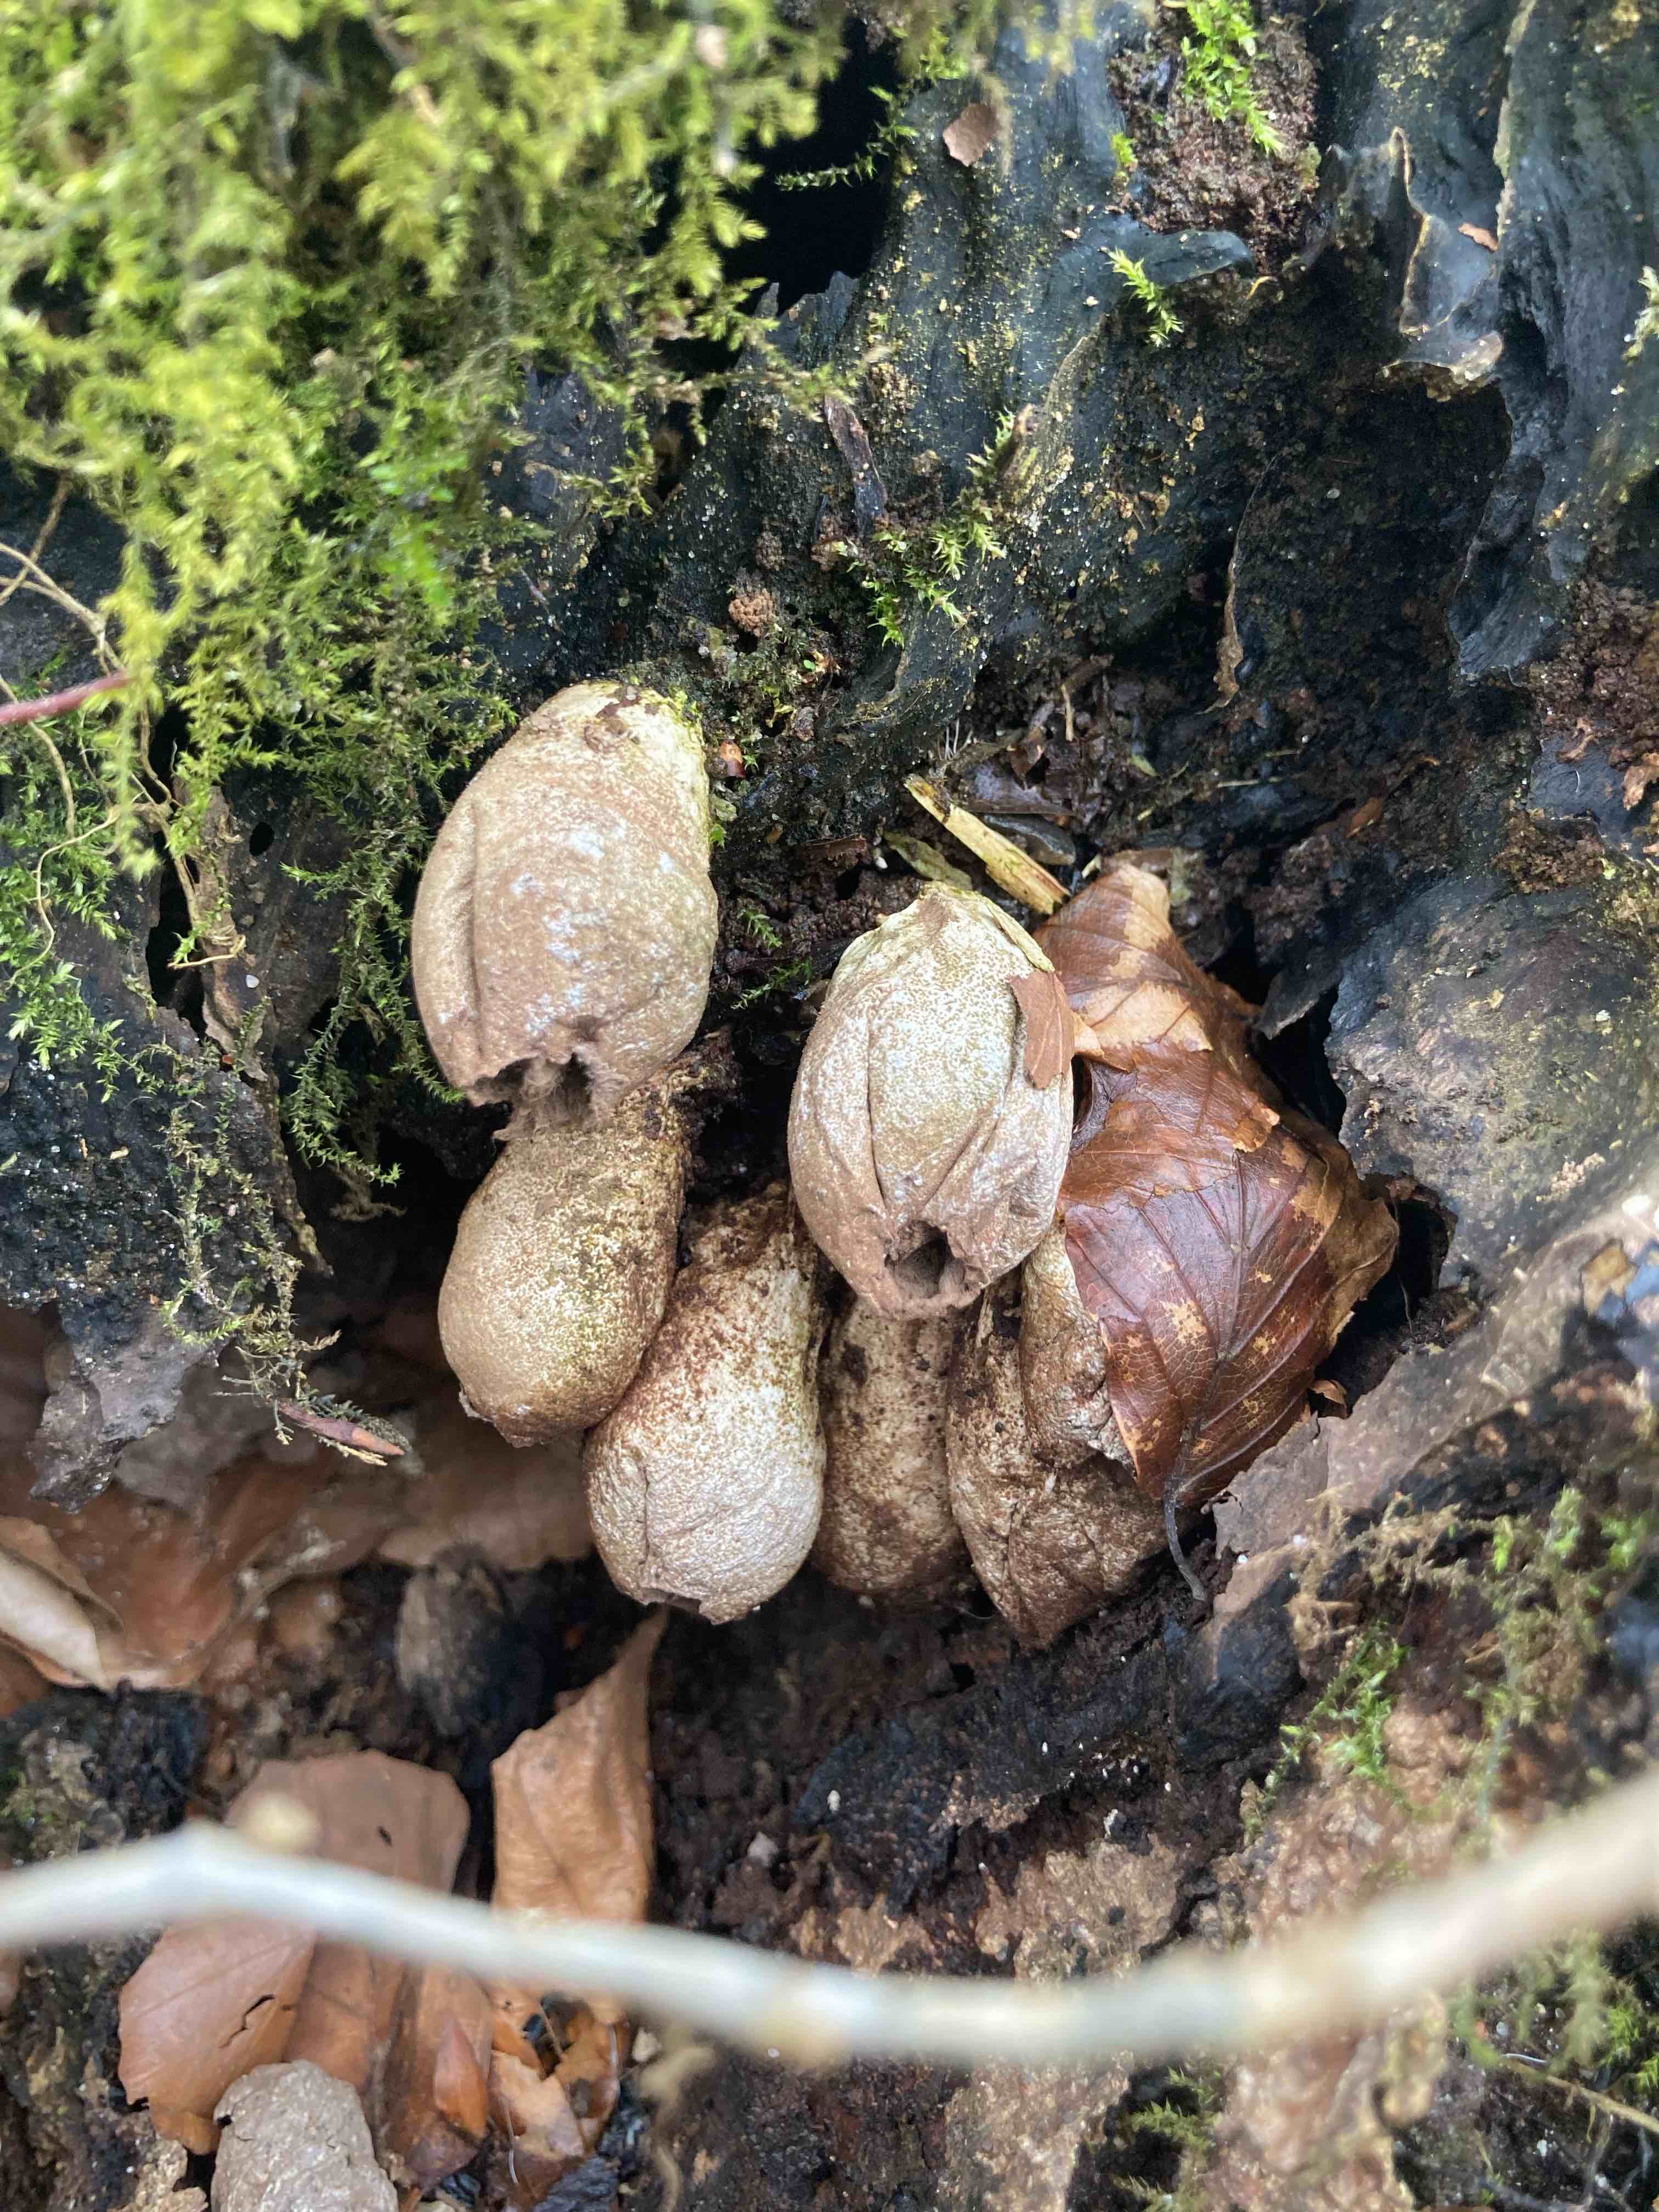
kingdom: Fungi
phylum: Basidiomycota
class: Agaricomycetes
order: Agaricales
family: Lycoperdaceae
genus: Apioperdon
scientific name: Apioperdon pyriforme
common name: pære-støvbold
